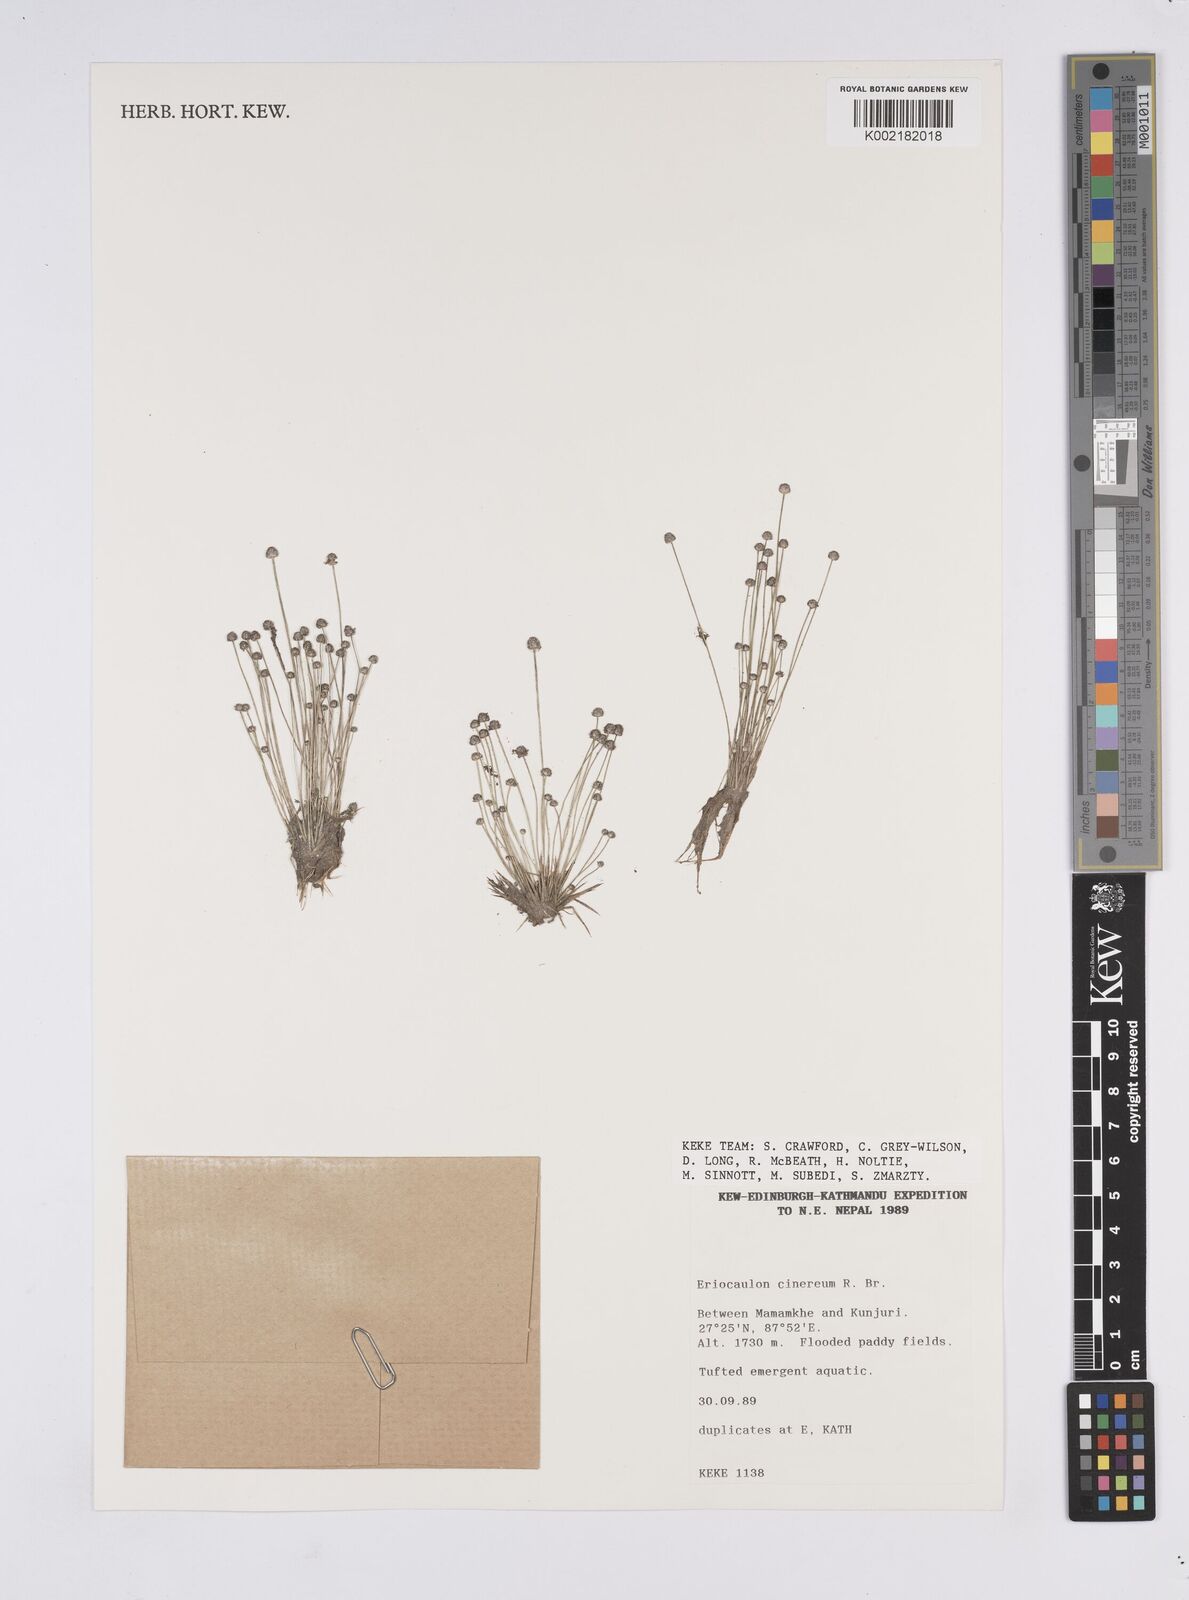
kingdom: Plantae
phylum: Tracheophyta
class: Liliopsida
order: Poales
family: Eriocaulaceae
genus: Eriocaulon
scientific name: Eriocaulon cinereum
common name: Ashy pipewort
